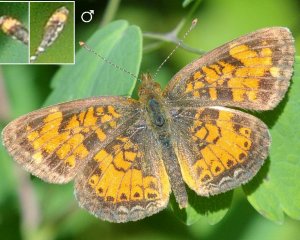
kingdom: Animalia
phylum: Arthropoda
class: Insecta
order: Lepidoptera
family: Nymphalidae
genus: Phyciodes
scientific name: Phyciodes tharos
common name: Northern Crescent
